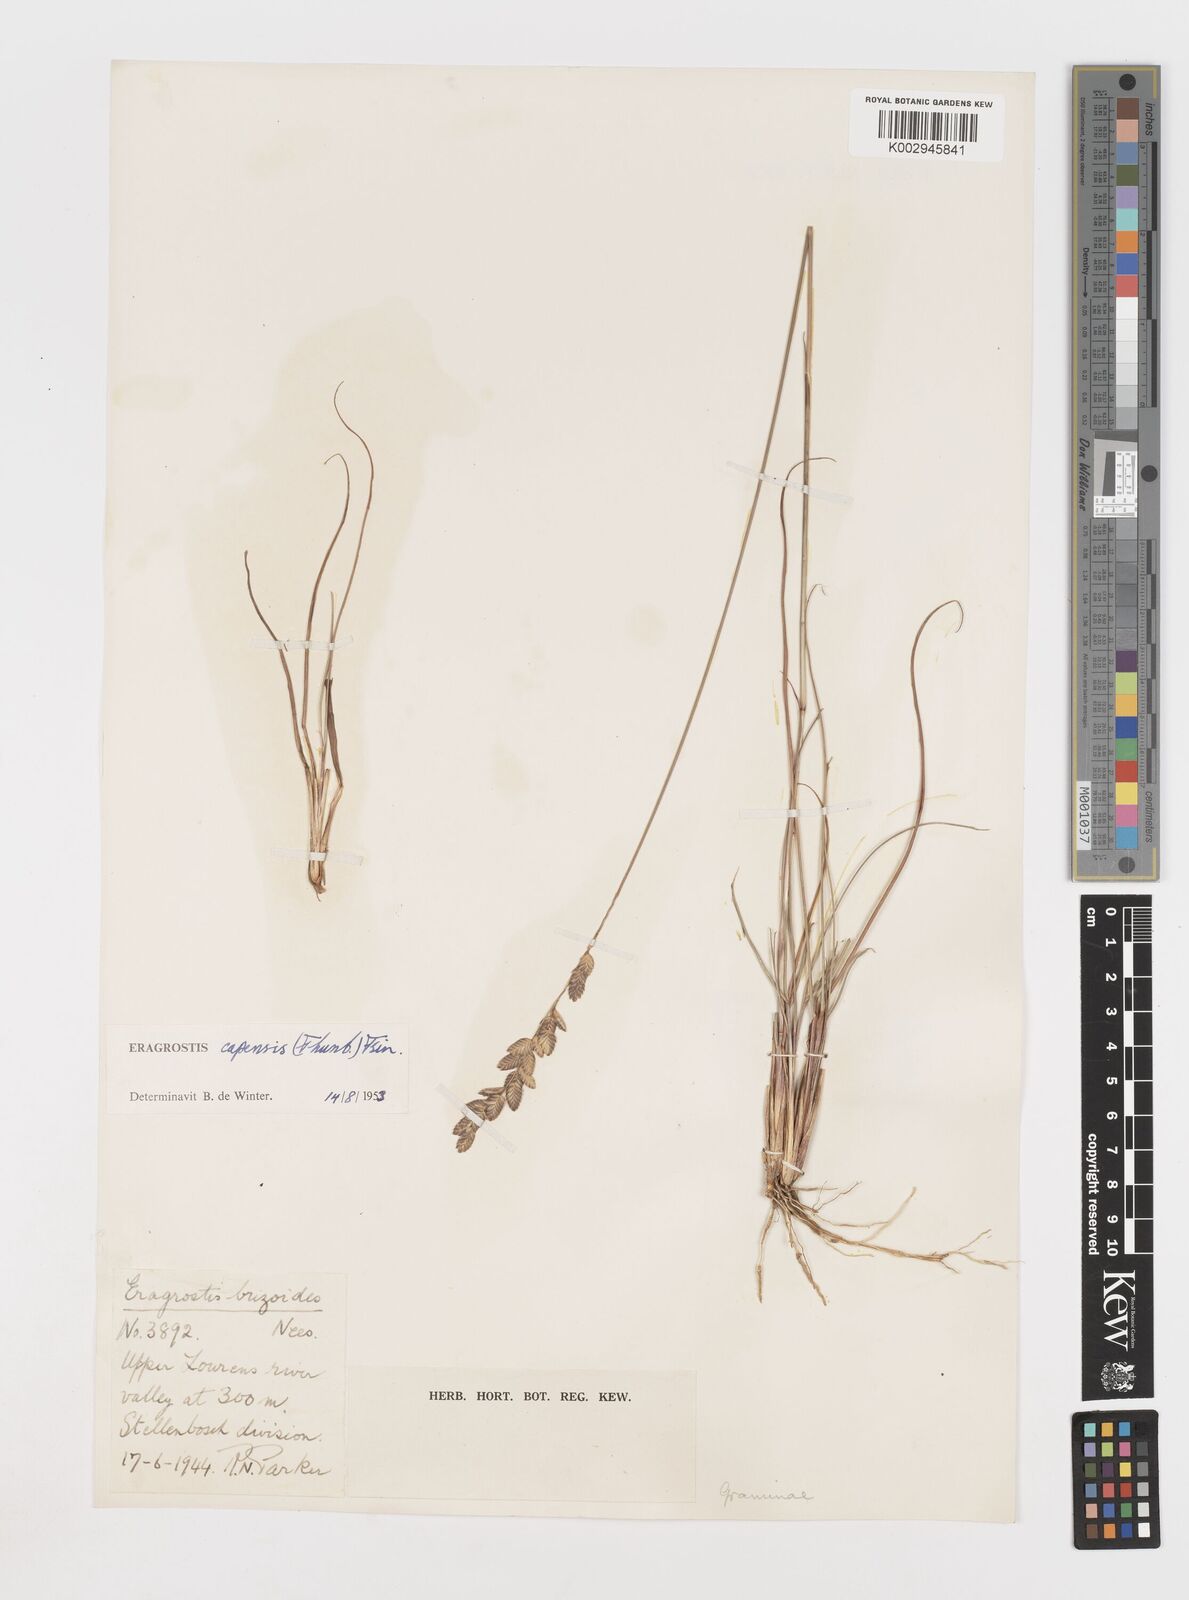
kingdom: Plantae
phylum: Tracheophyta
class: Liliopsida
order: Poales
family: Poaceae
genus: Eragrostis
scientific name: Eragrostis capensis
